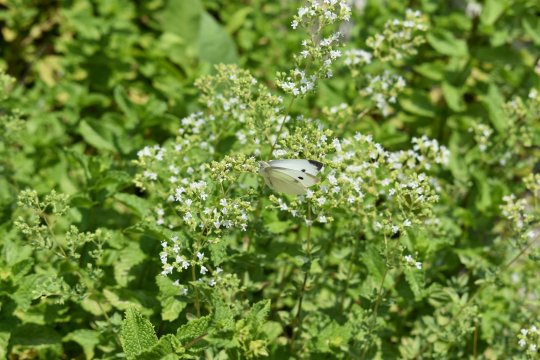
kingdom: Animalia
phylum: Arthropoda
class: Insecta
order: Lepidoptera
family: Pieridae
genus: Pieris
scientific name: Pieris rapae
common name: Cabbage White
